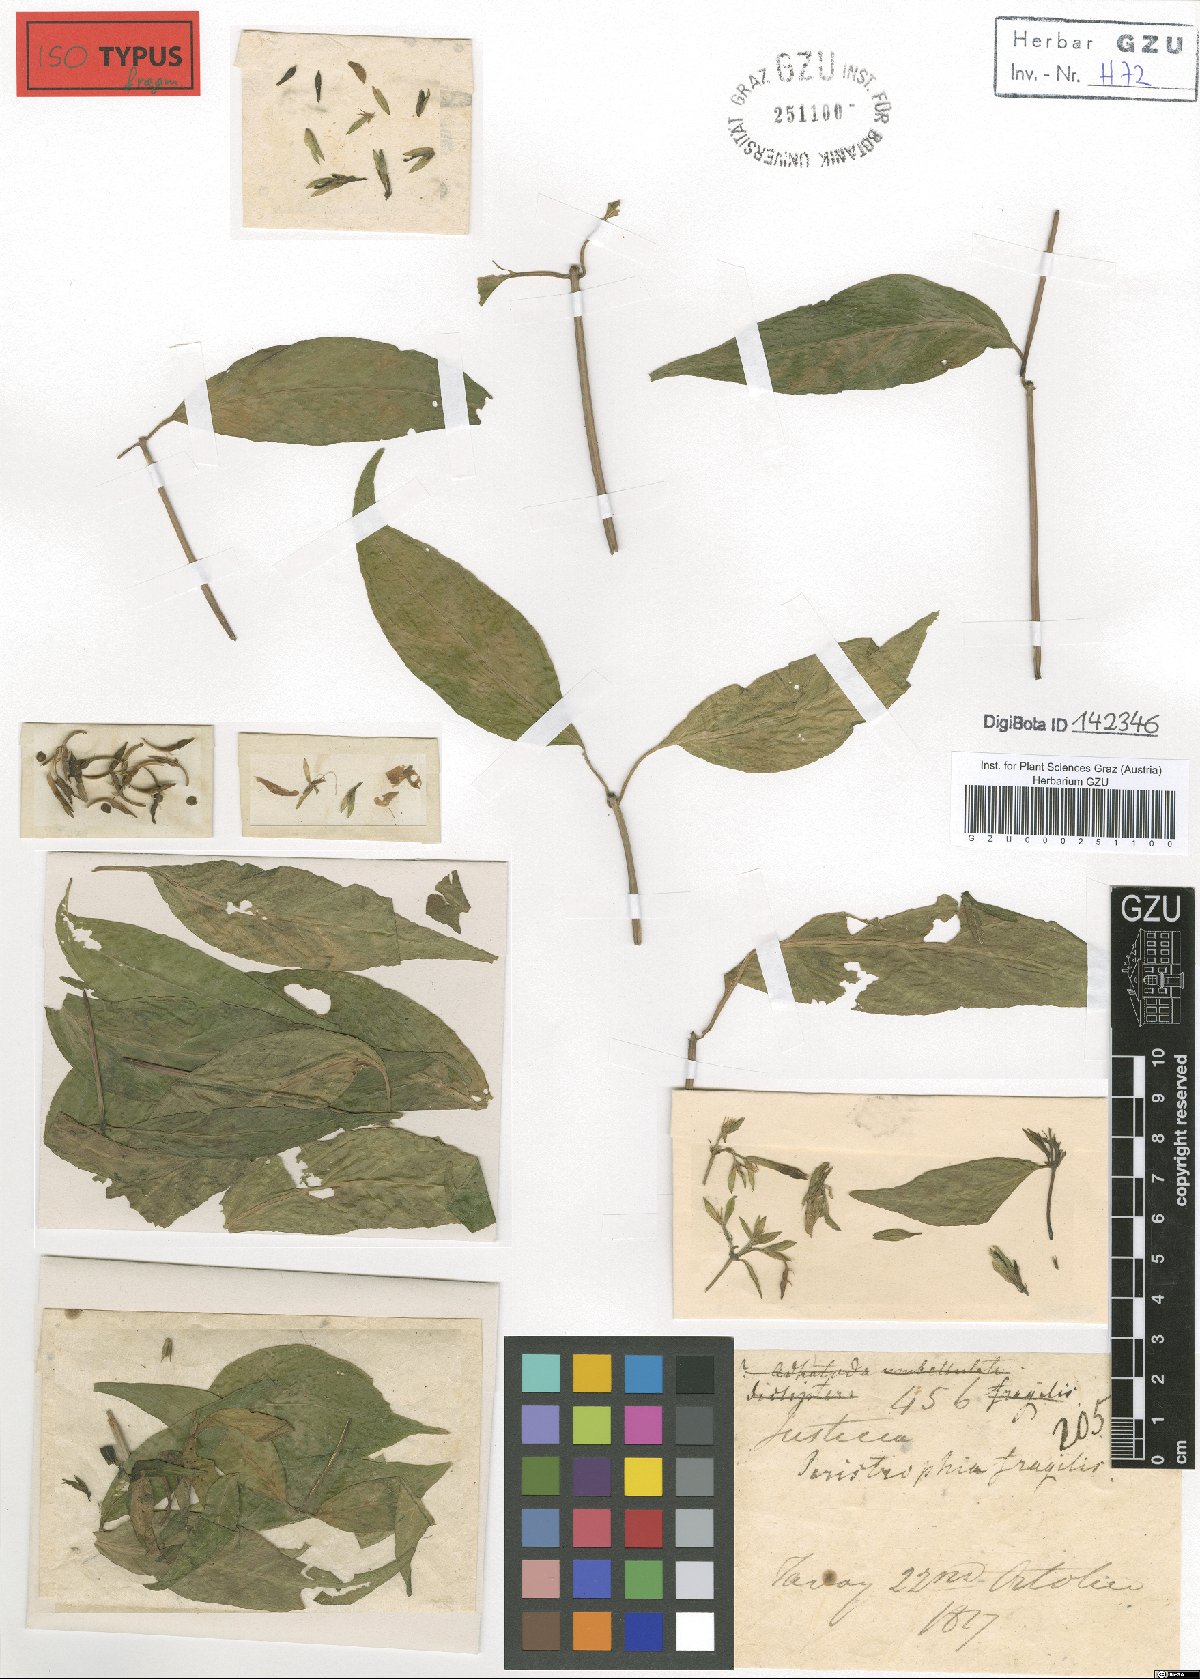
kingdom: Plantae
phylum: Tracheophyta
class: Magnoliopsida
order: Lamiales
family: Acanthaceae
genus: Dicliptera
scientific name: Dicliptera sebastinei
